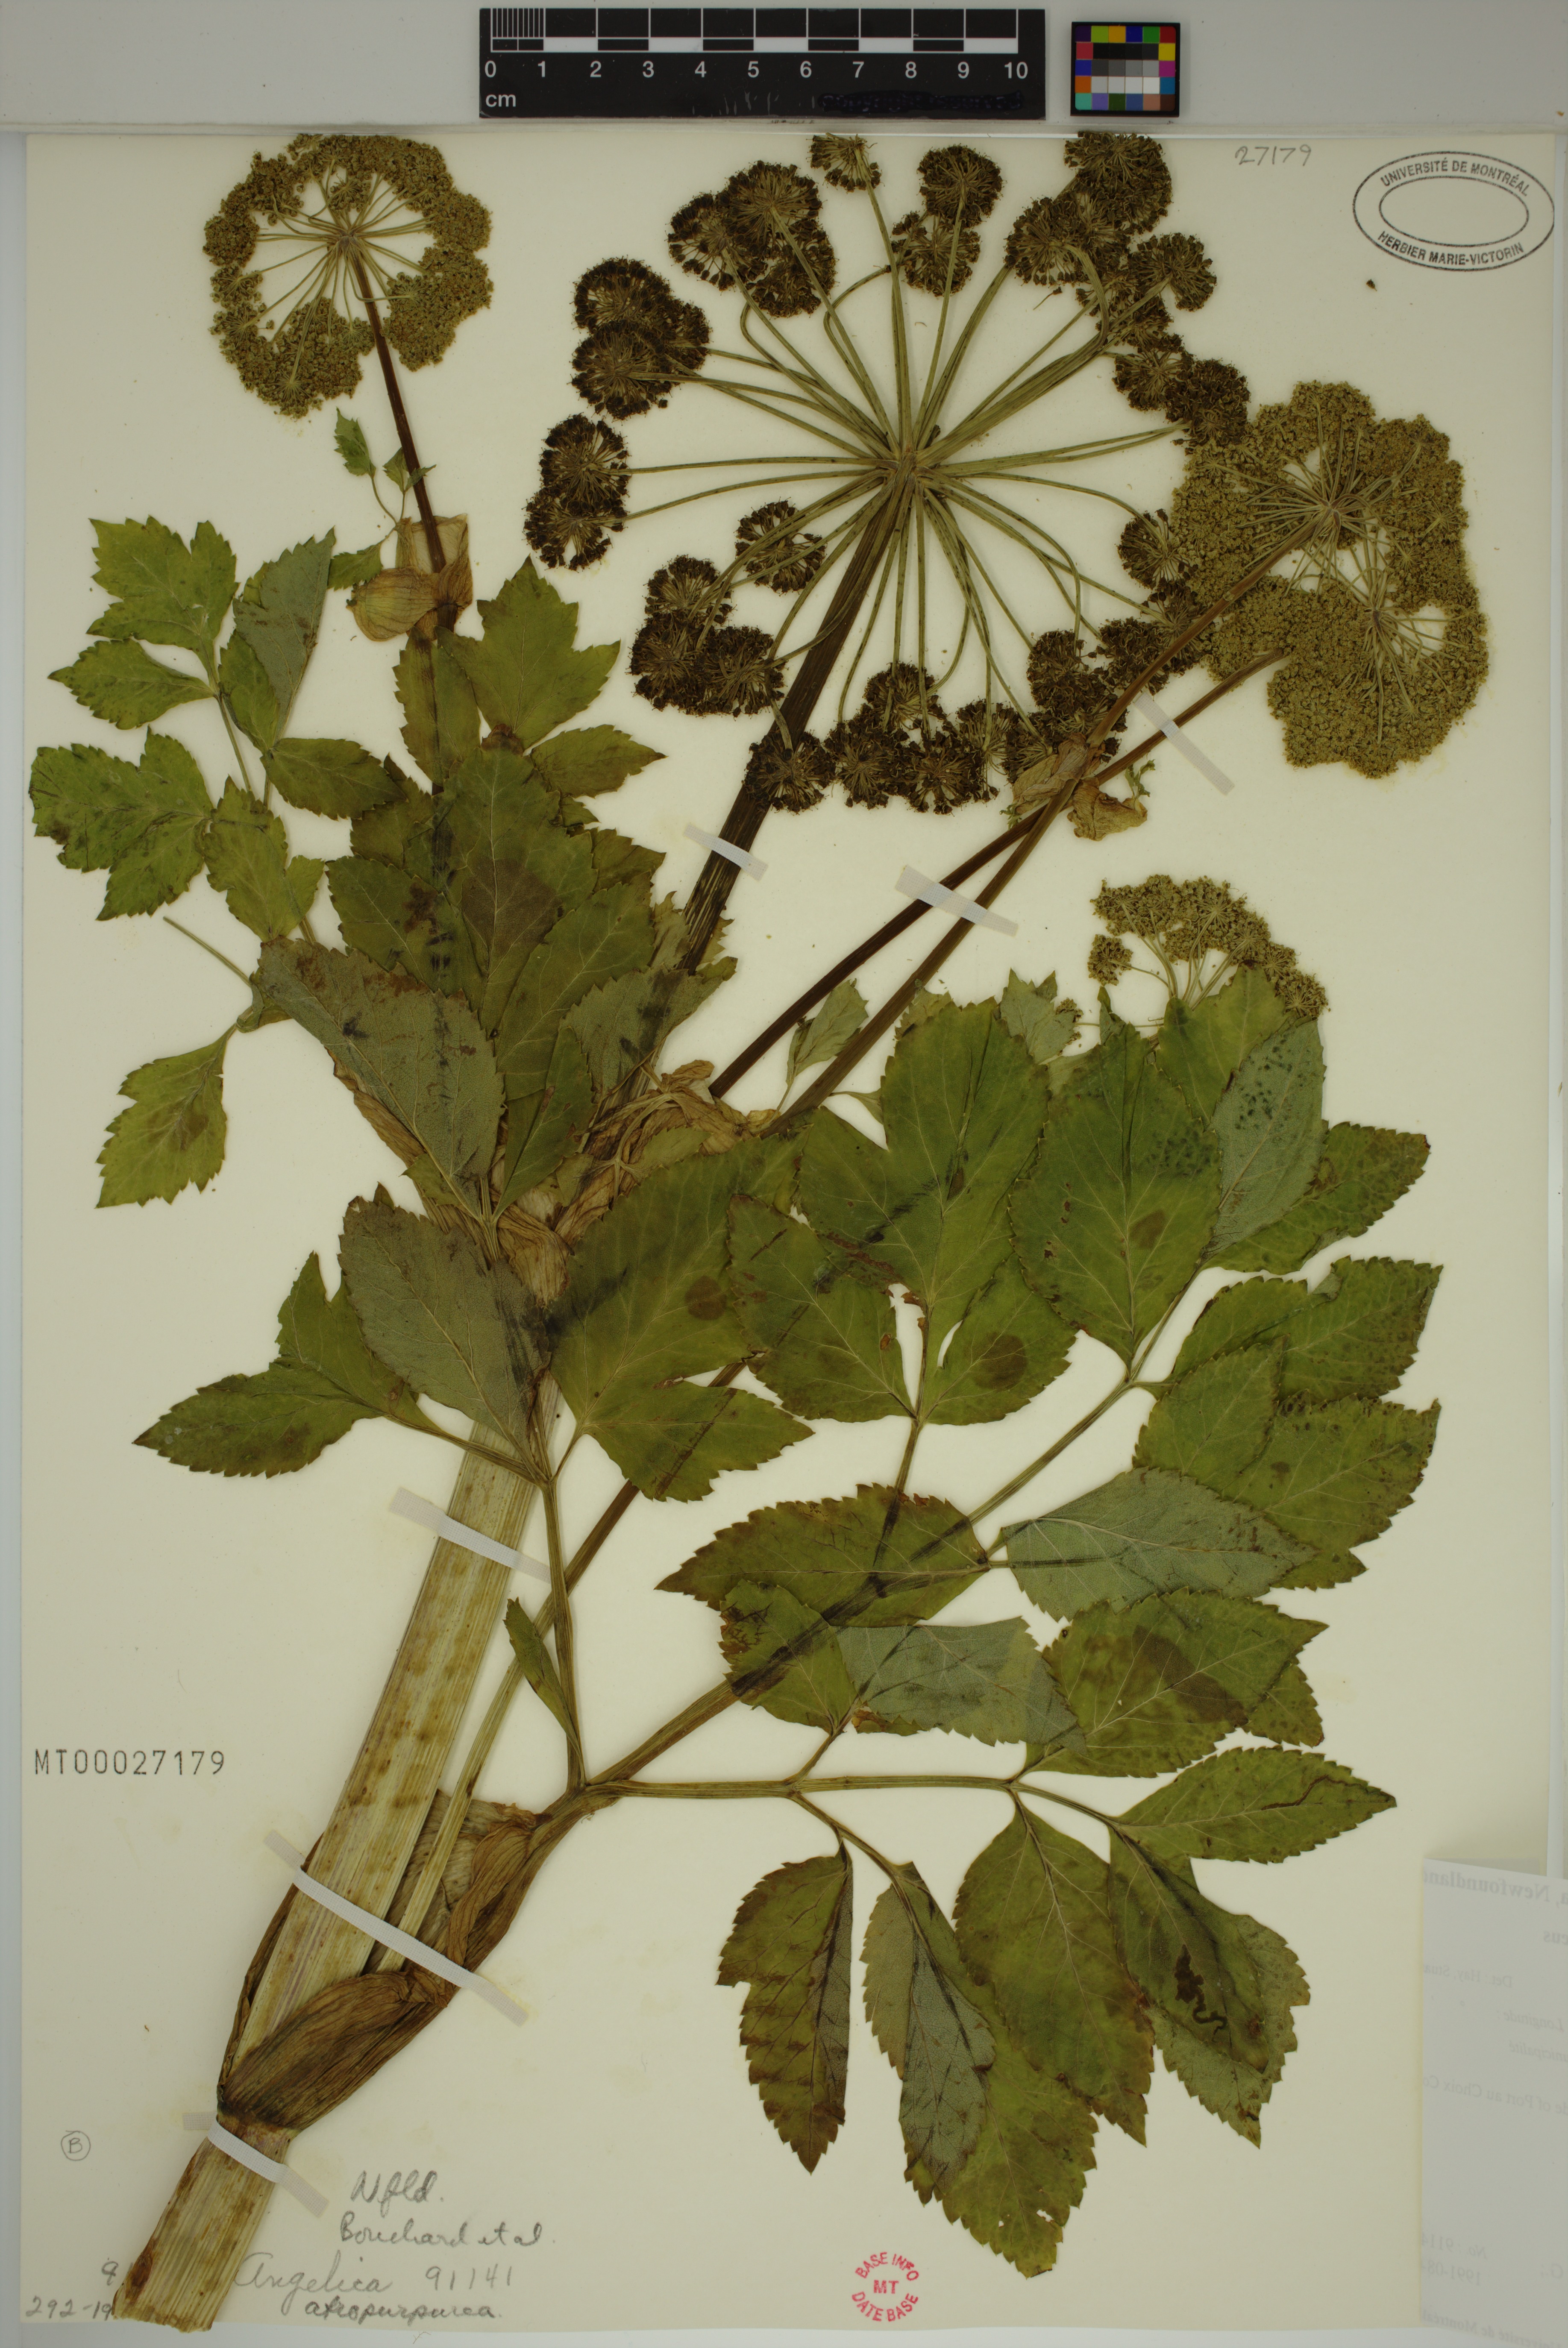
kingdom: Plantae
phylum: Tracheophyta
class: Magnoliopsida
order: Apiales
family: Apiaceae
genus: Angelica
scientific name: Angelica atropurpurea
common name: Great angelica
